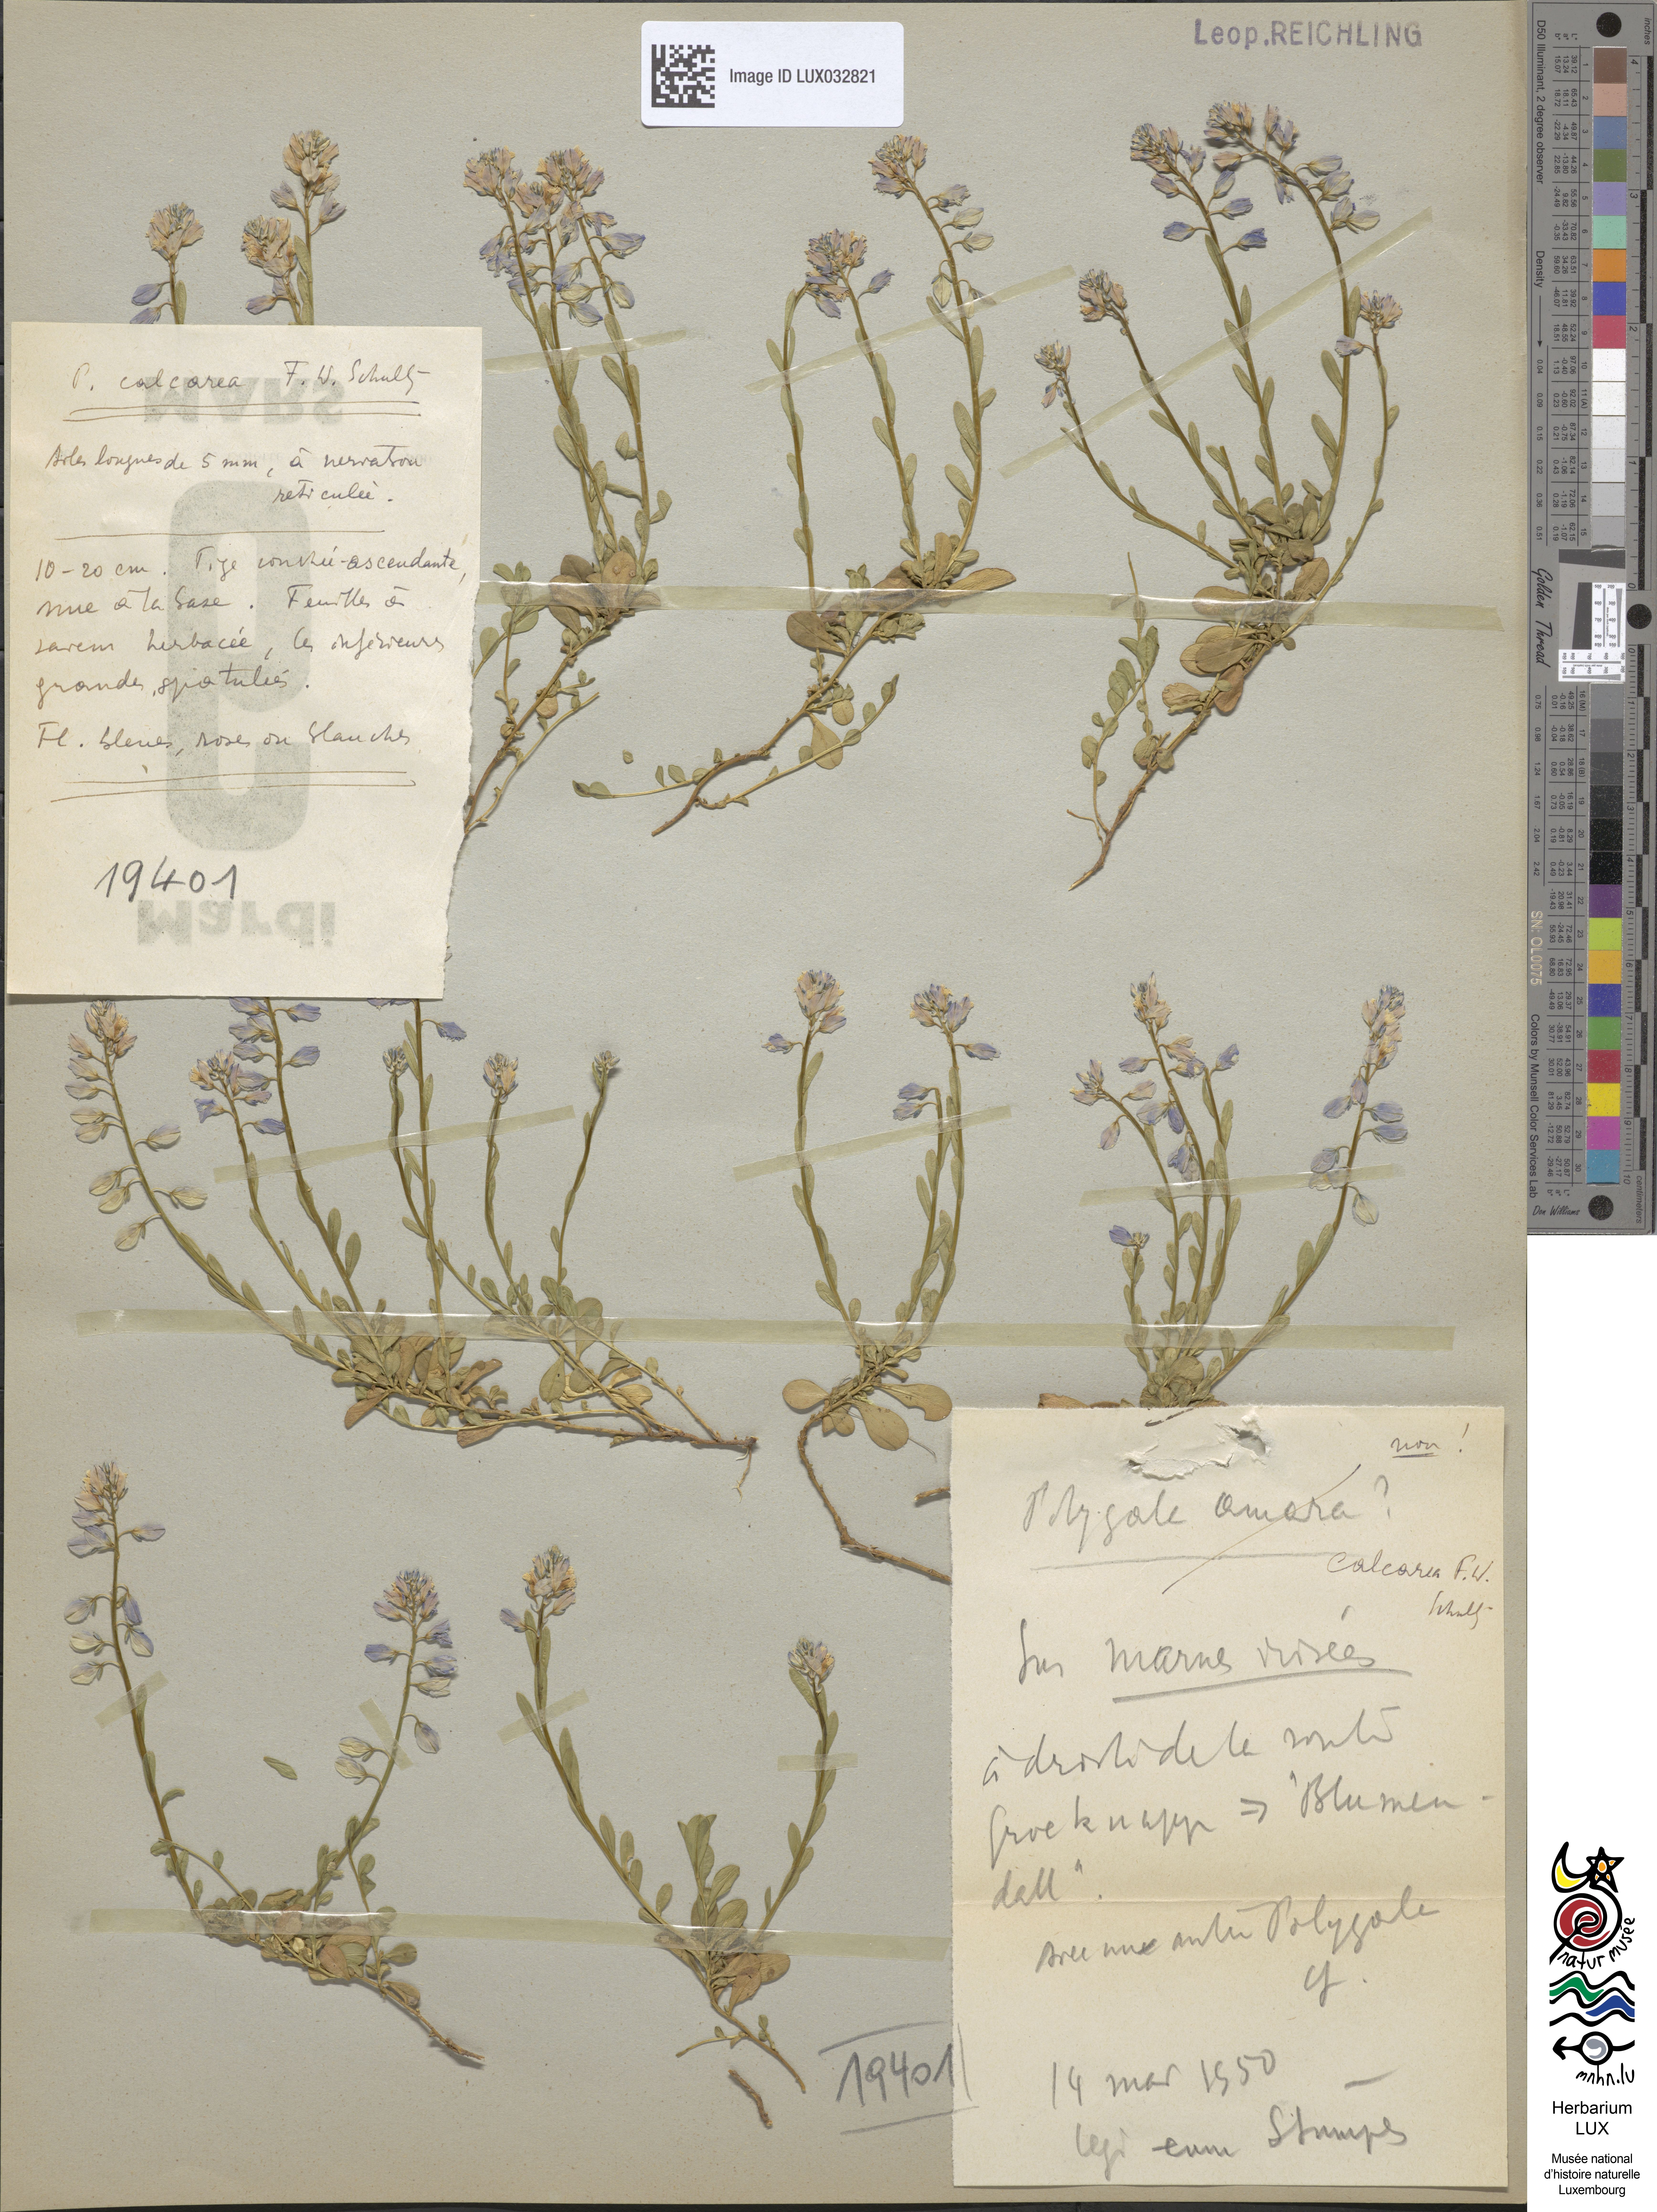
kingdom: Plantae
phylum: Tracheophyta
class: Magnoliopsida
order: Fabales
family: Polygalaceae
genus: Polygala
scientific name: Polygala calcarea
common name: Chalk milkwort
